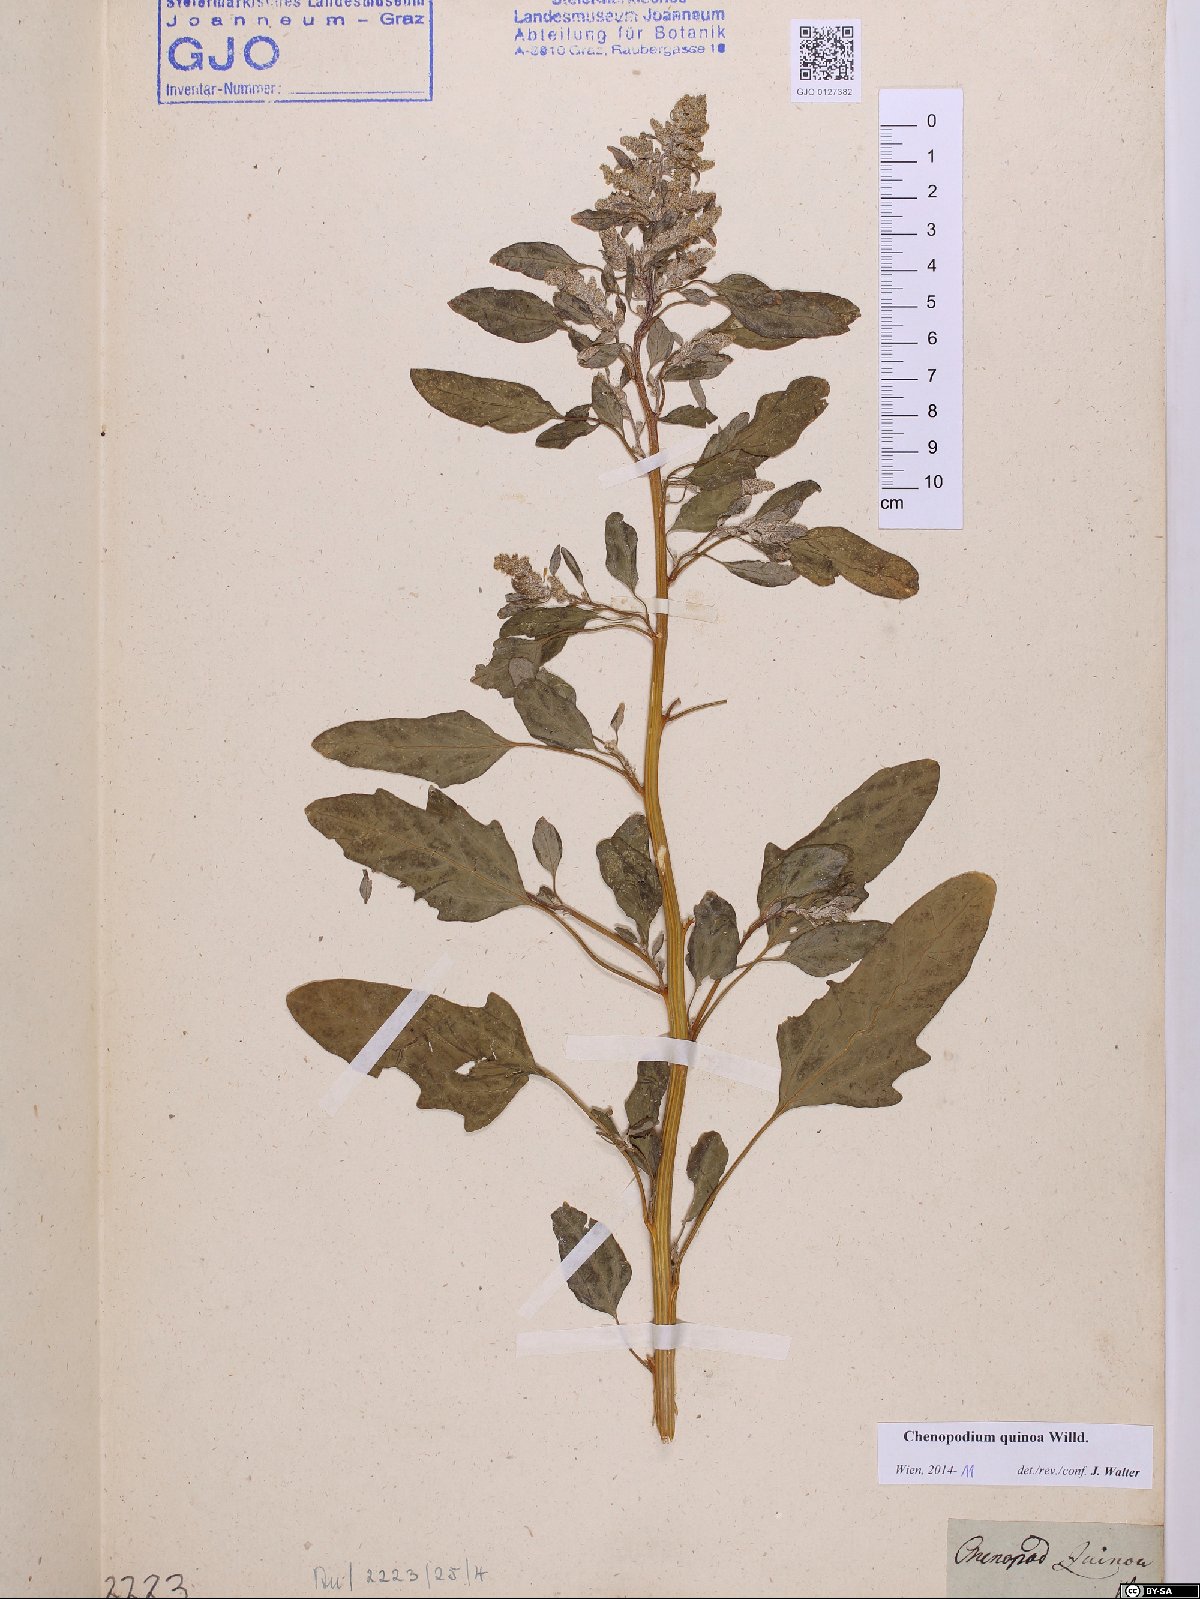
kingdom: Plantae
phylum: Tracheophyta
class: Magnoliopsida
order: Caryophyllales
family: Amaranthaceae
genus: Chenopodium
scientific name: Chenopodium quinoa
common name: Quinoa
